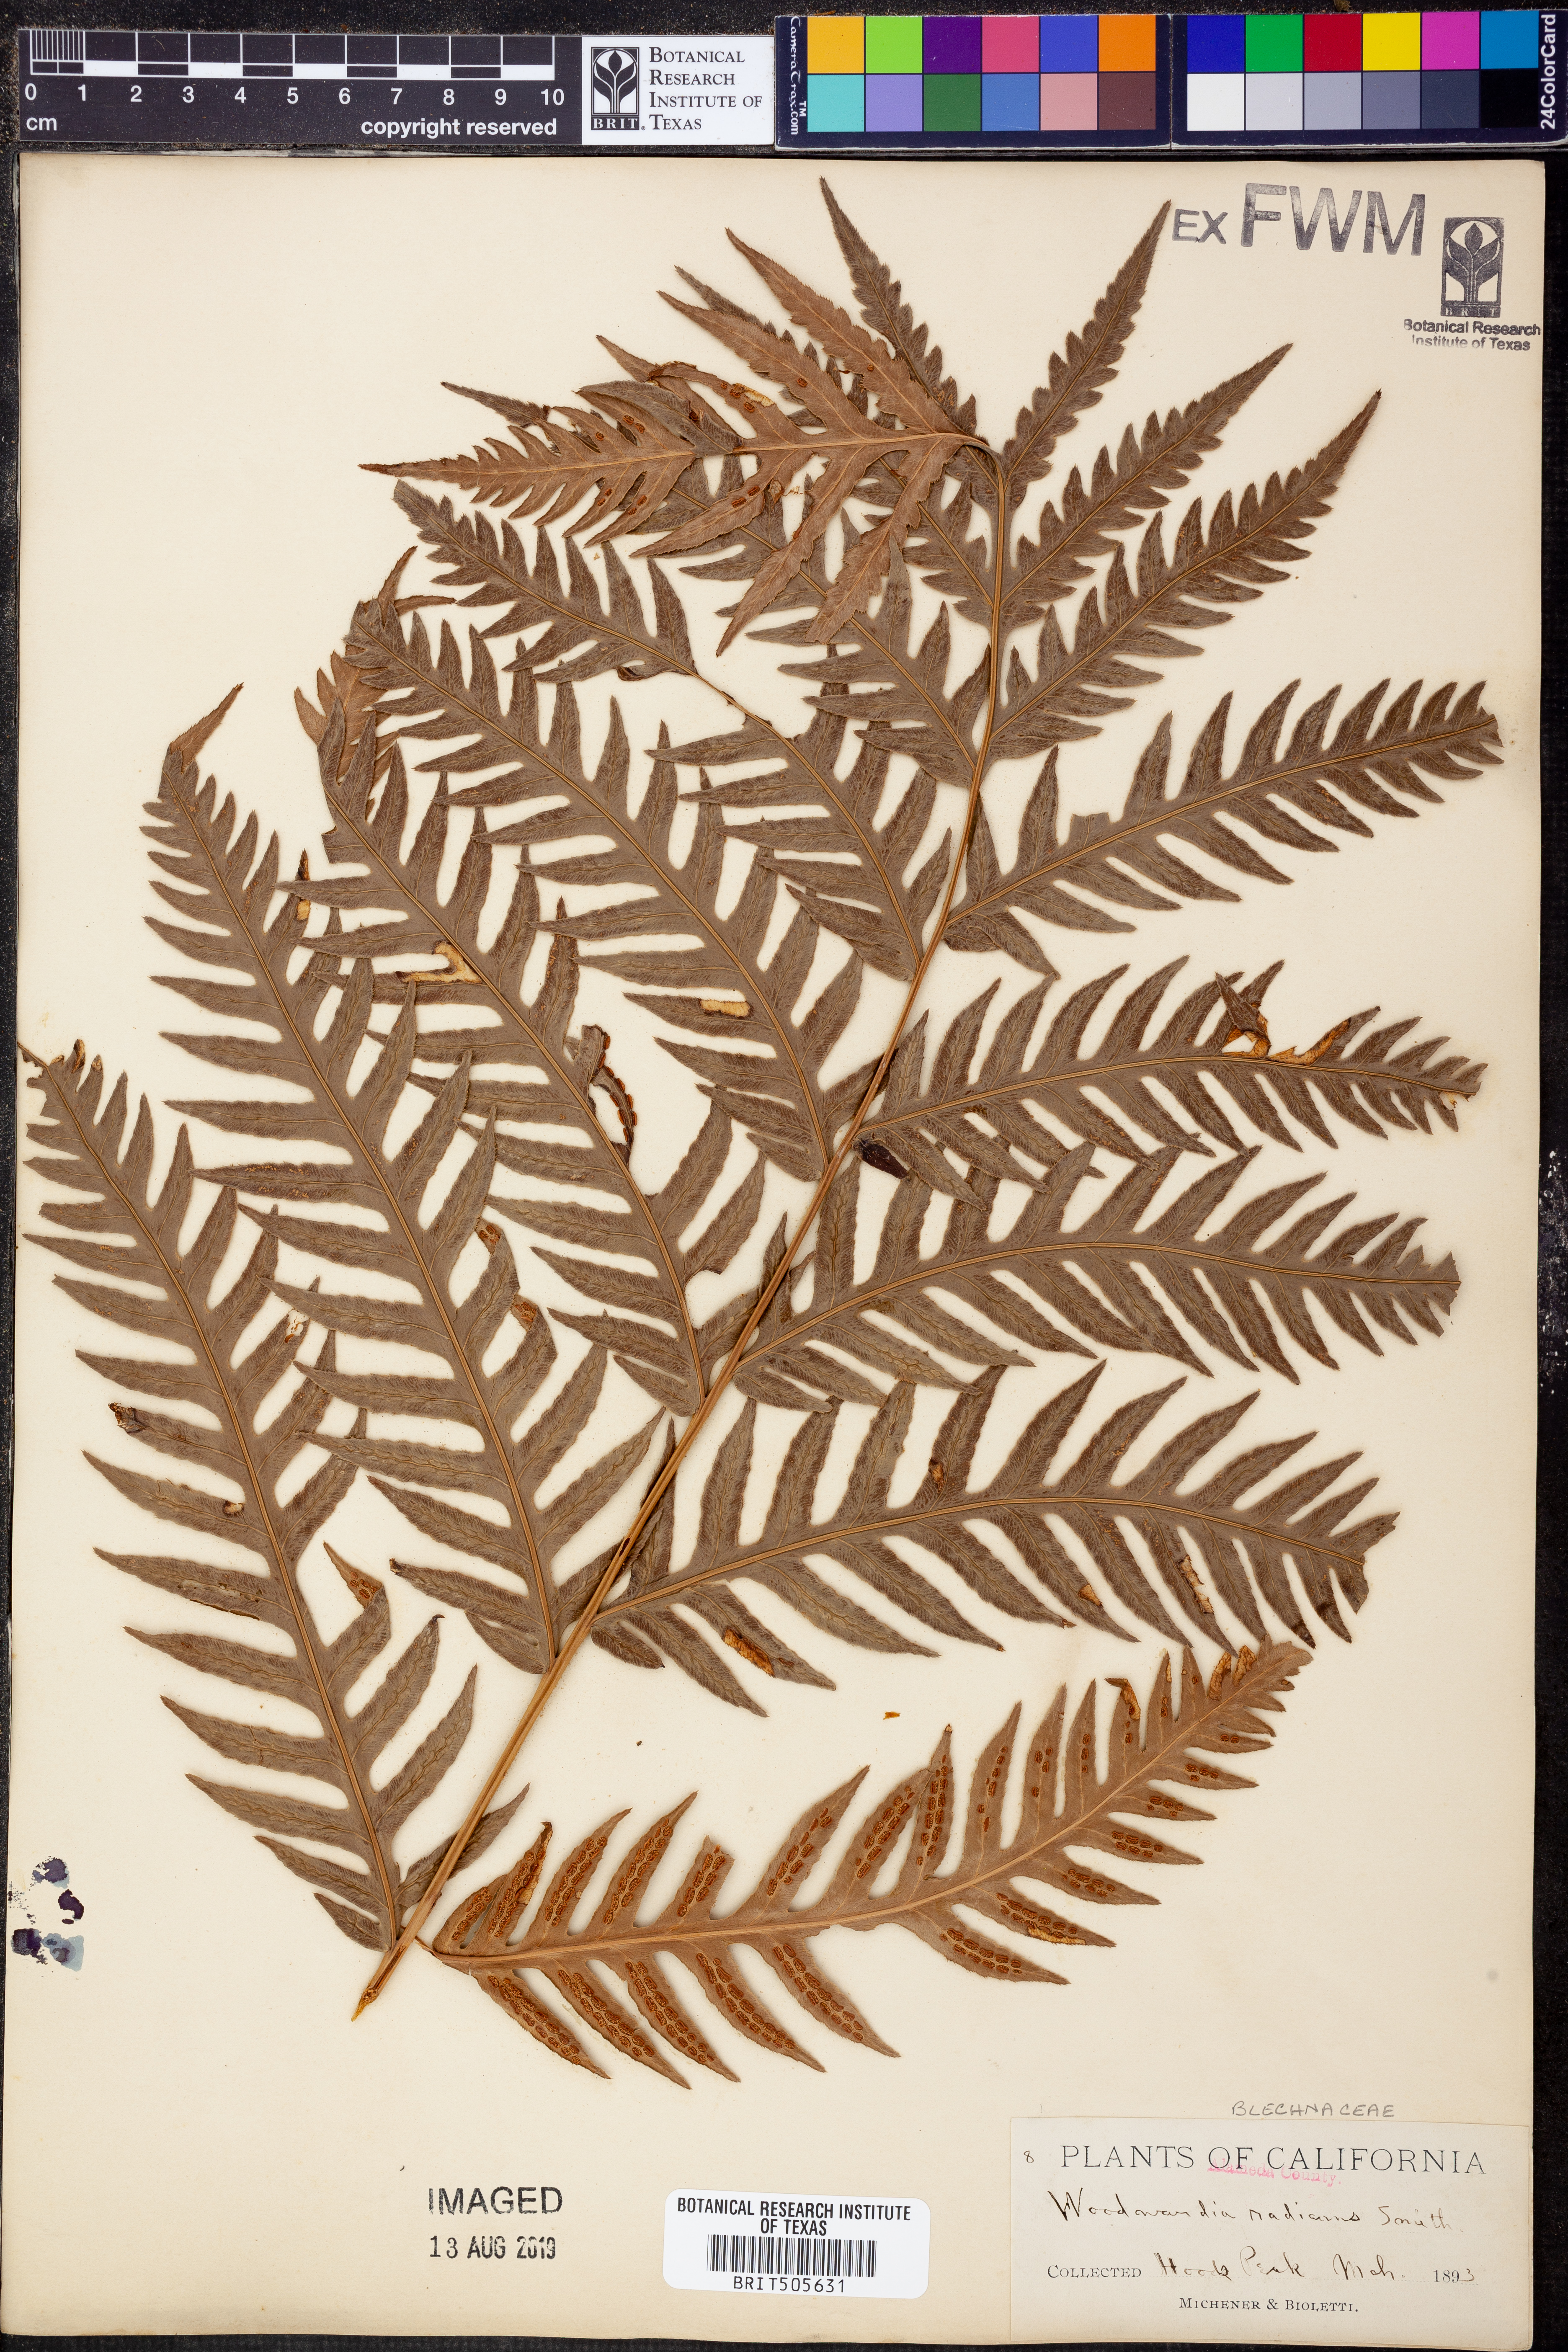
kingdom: Plantae
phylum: Tracheophyta
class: Polypodiopsida
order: Polypodiales
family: Blechnaceae
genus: Woodwardia
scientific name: Woodwardia radicans
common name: Rooting chainfern
